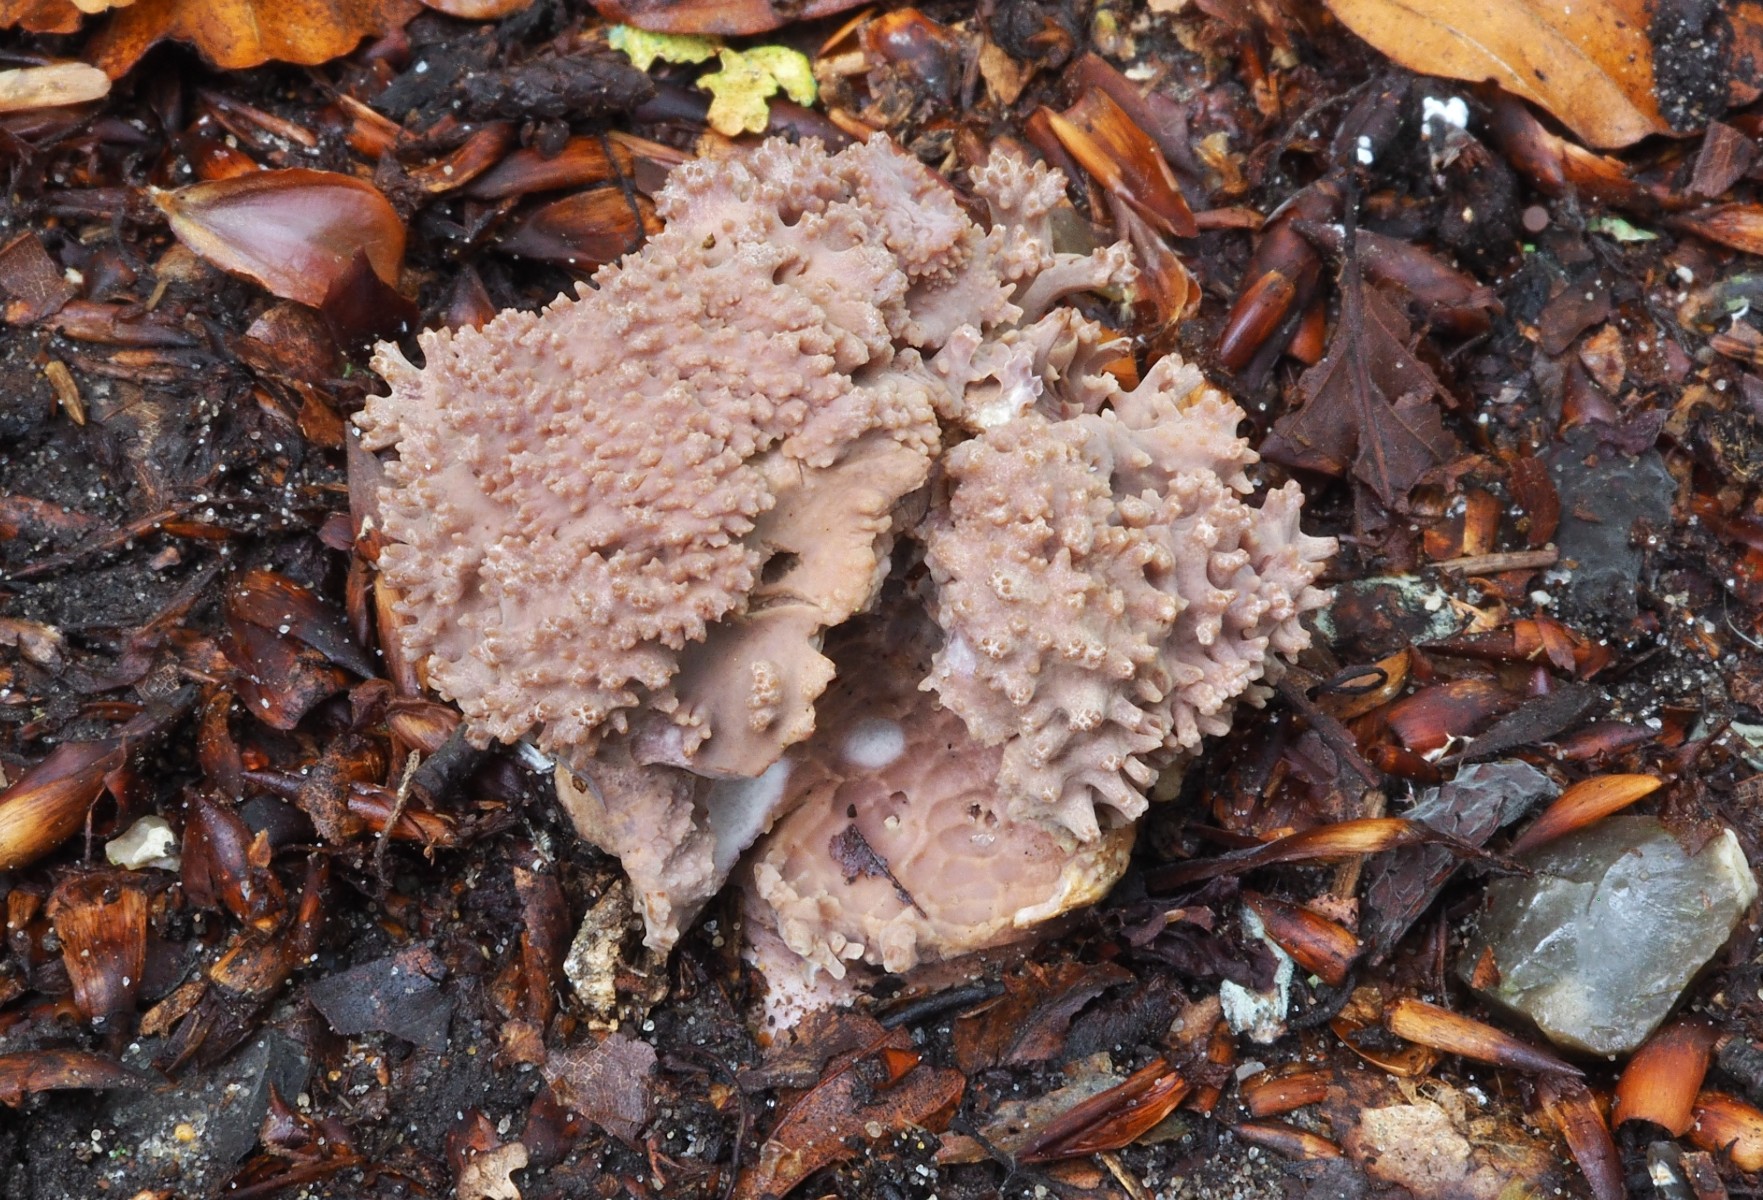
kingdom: Fungi
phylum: Basidiomycota
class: Agaricomycetes
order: Gomphales
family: Gomphaceae
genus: Ramaria
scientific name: Ramaria fumigata
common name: violet koralsvamp
